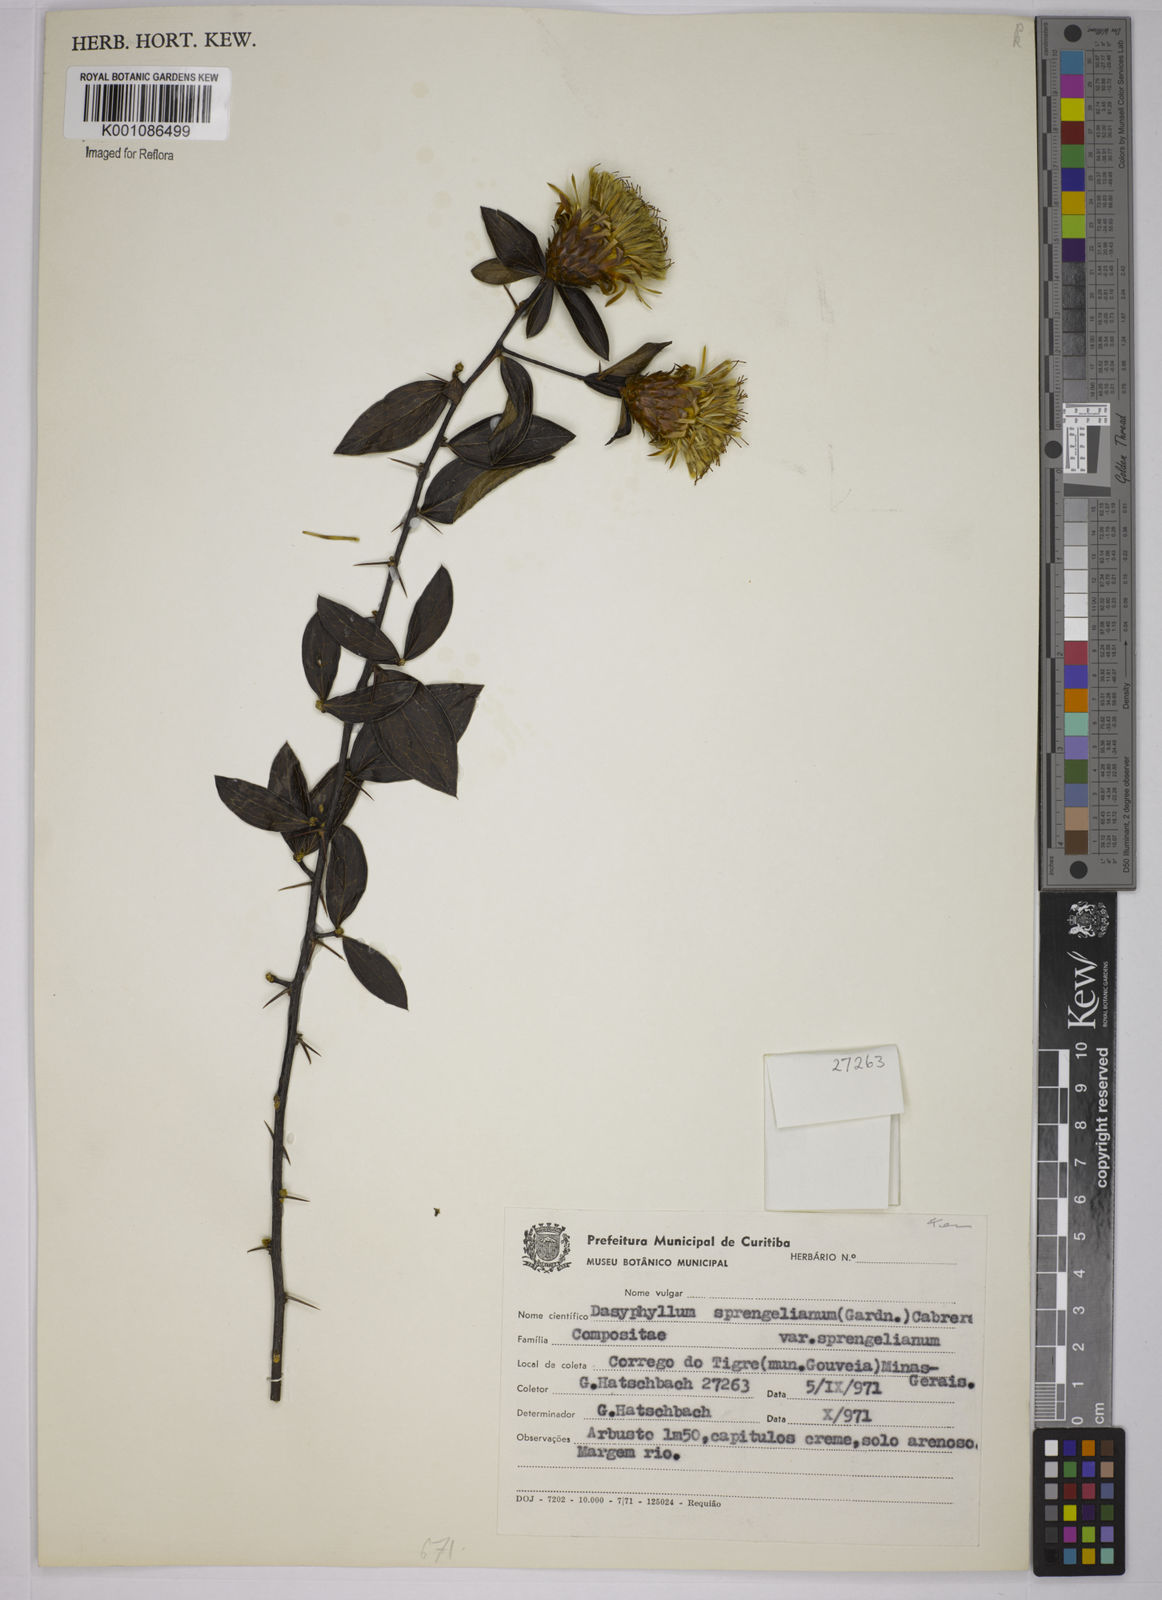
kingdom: Plantae
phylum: Tracheophyta
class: Magnoliopsida
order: Asterales
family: Asteraceae
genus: Dasyphyllum
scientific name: Dasyphyllum sprengelianum
